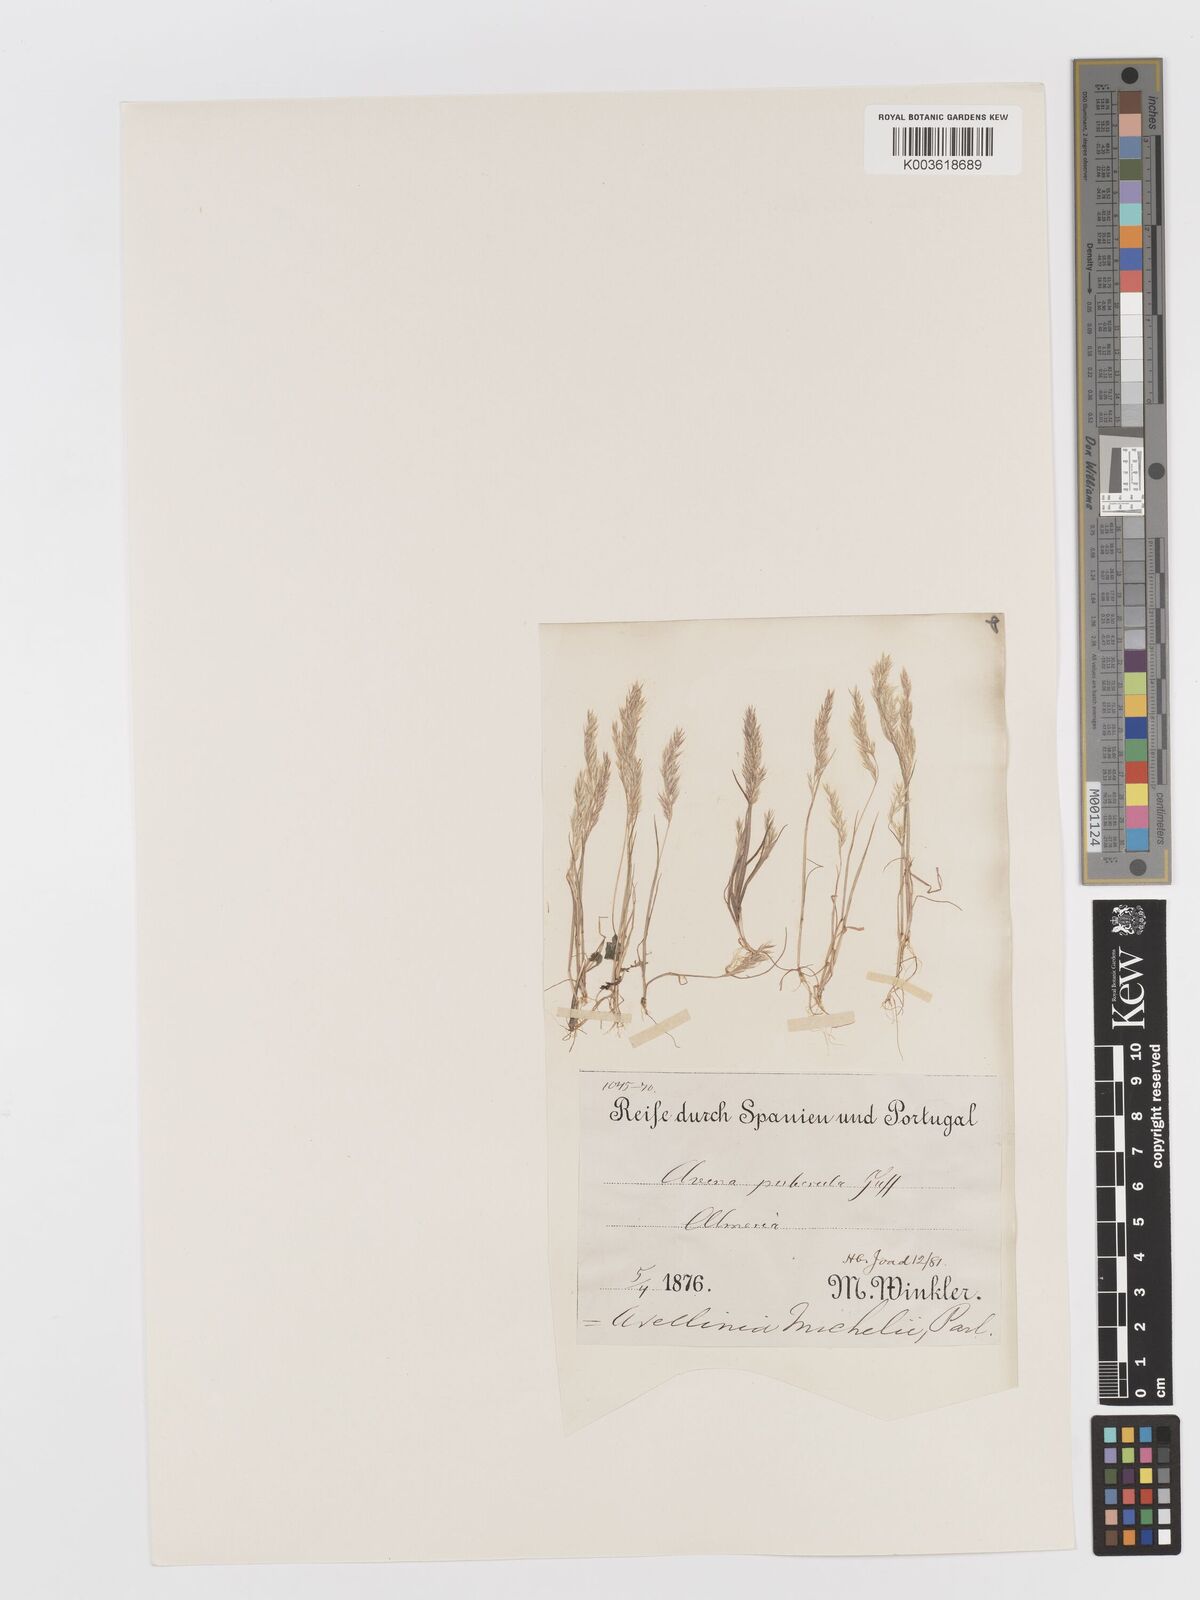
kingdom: Plantae
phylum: Tracheophyta
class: Liliopsida
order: Poales
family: Poaceae
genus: Avellinia
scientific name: Avellinia festucoides
